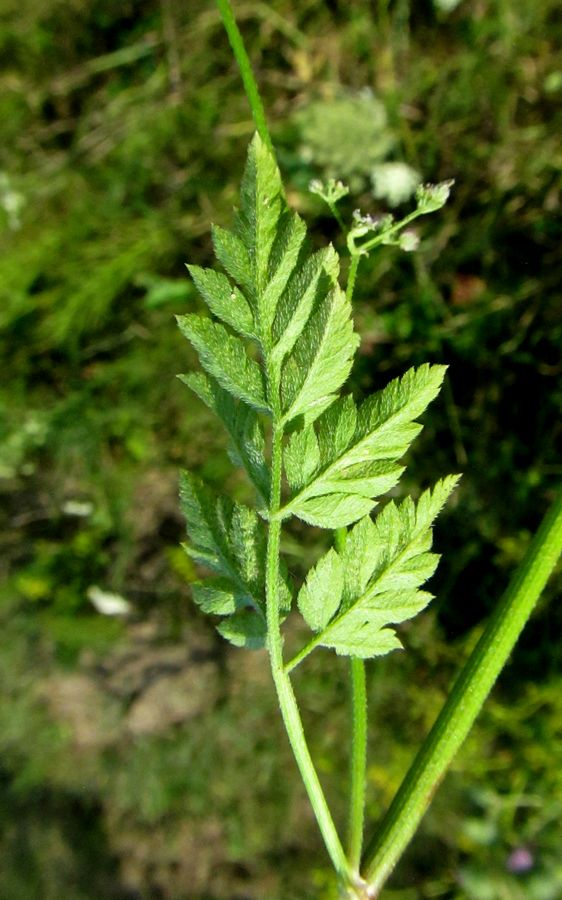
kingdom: Plantae
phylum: Tracheophyta
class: Magnoliopsida
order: Apiales
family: Apiaceae
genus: Torilis
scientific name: Torilis japonica
